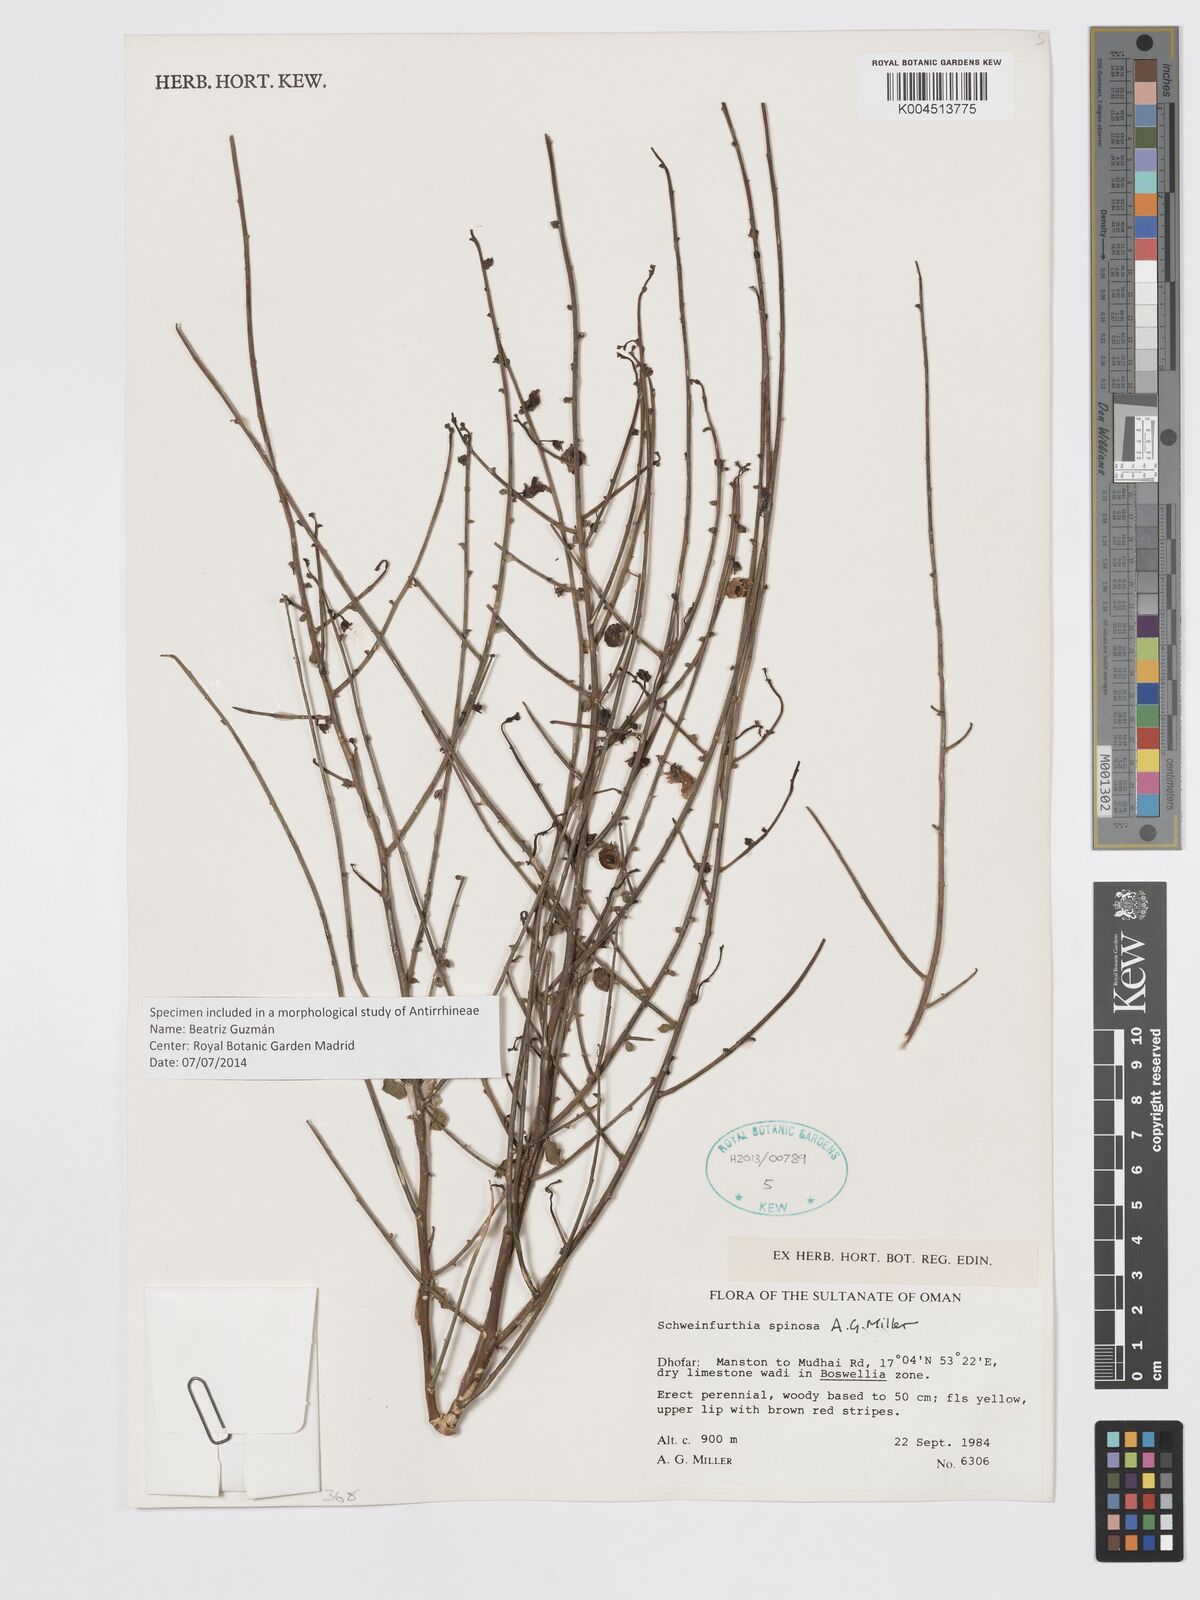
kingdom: Plantae
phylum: Tracheophyta
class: Magnoliopsida
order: Lamiales
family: Plantaginaceae
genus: Schweinfurthia
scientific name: Schweinfurthia spinosa
